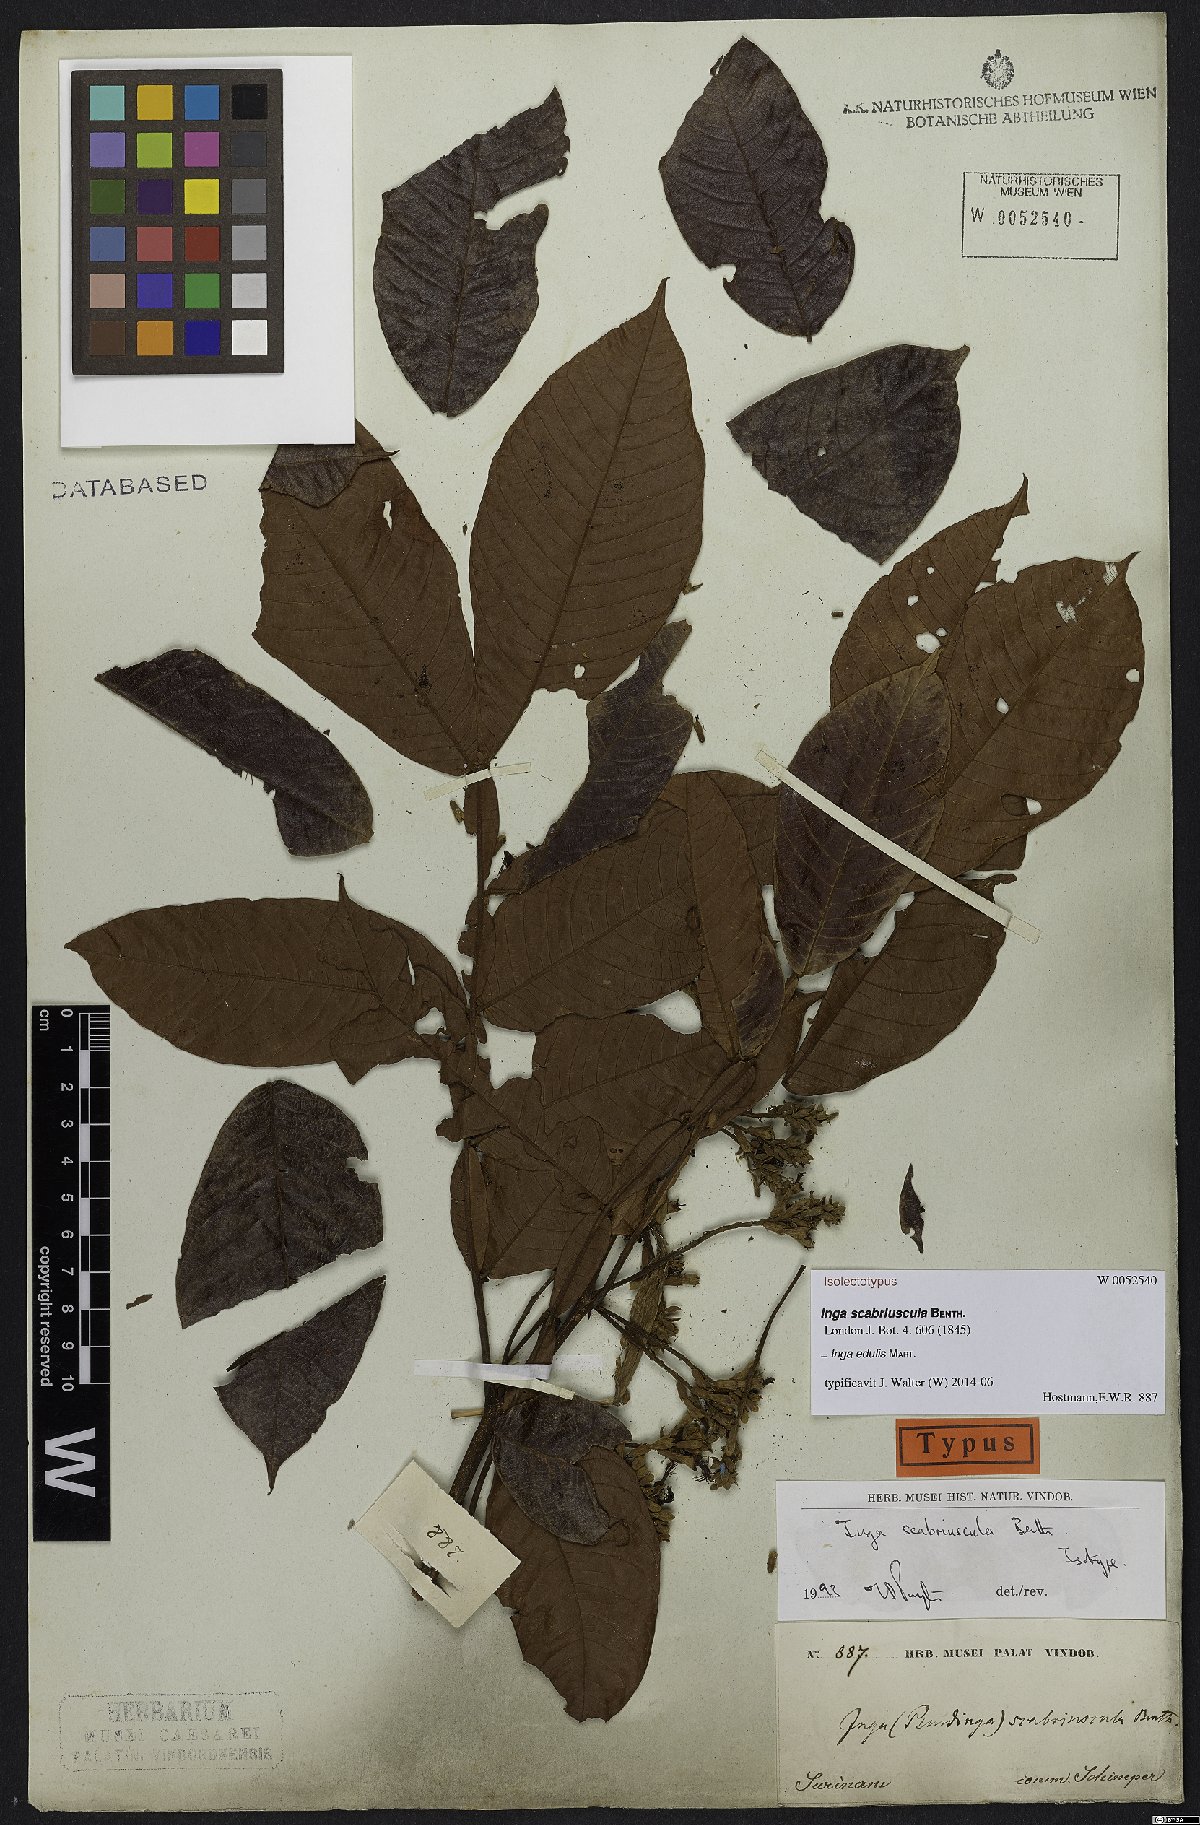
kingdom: Plantae
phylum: Tracheophyta
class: Magnoliopsida
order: Fabales
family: Fabaceae
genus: Inga
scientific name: Inga edulis
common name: Ice cream bean
